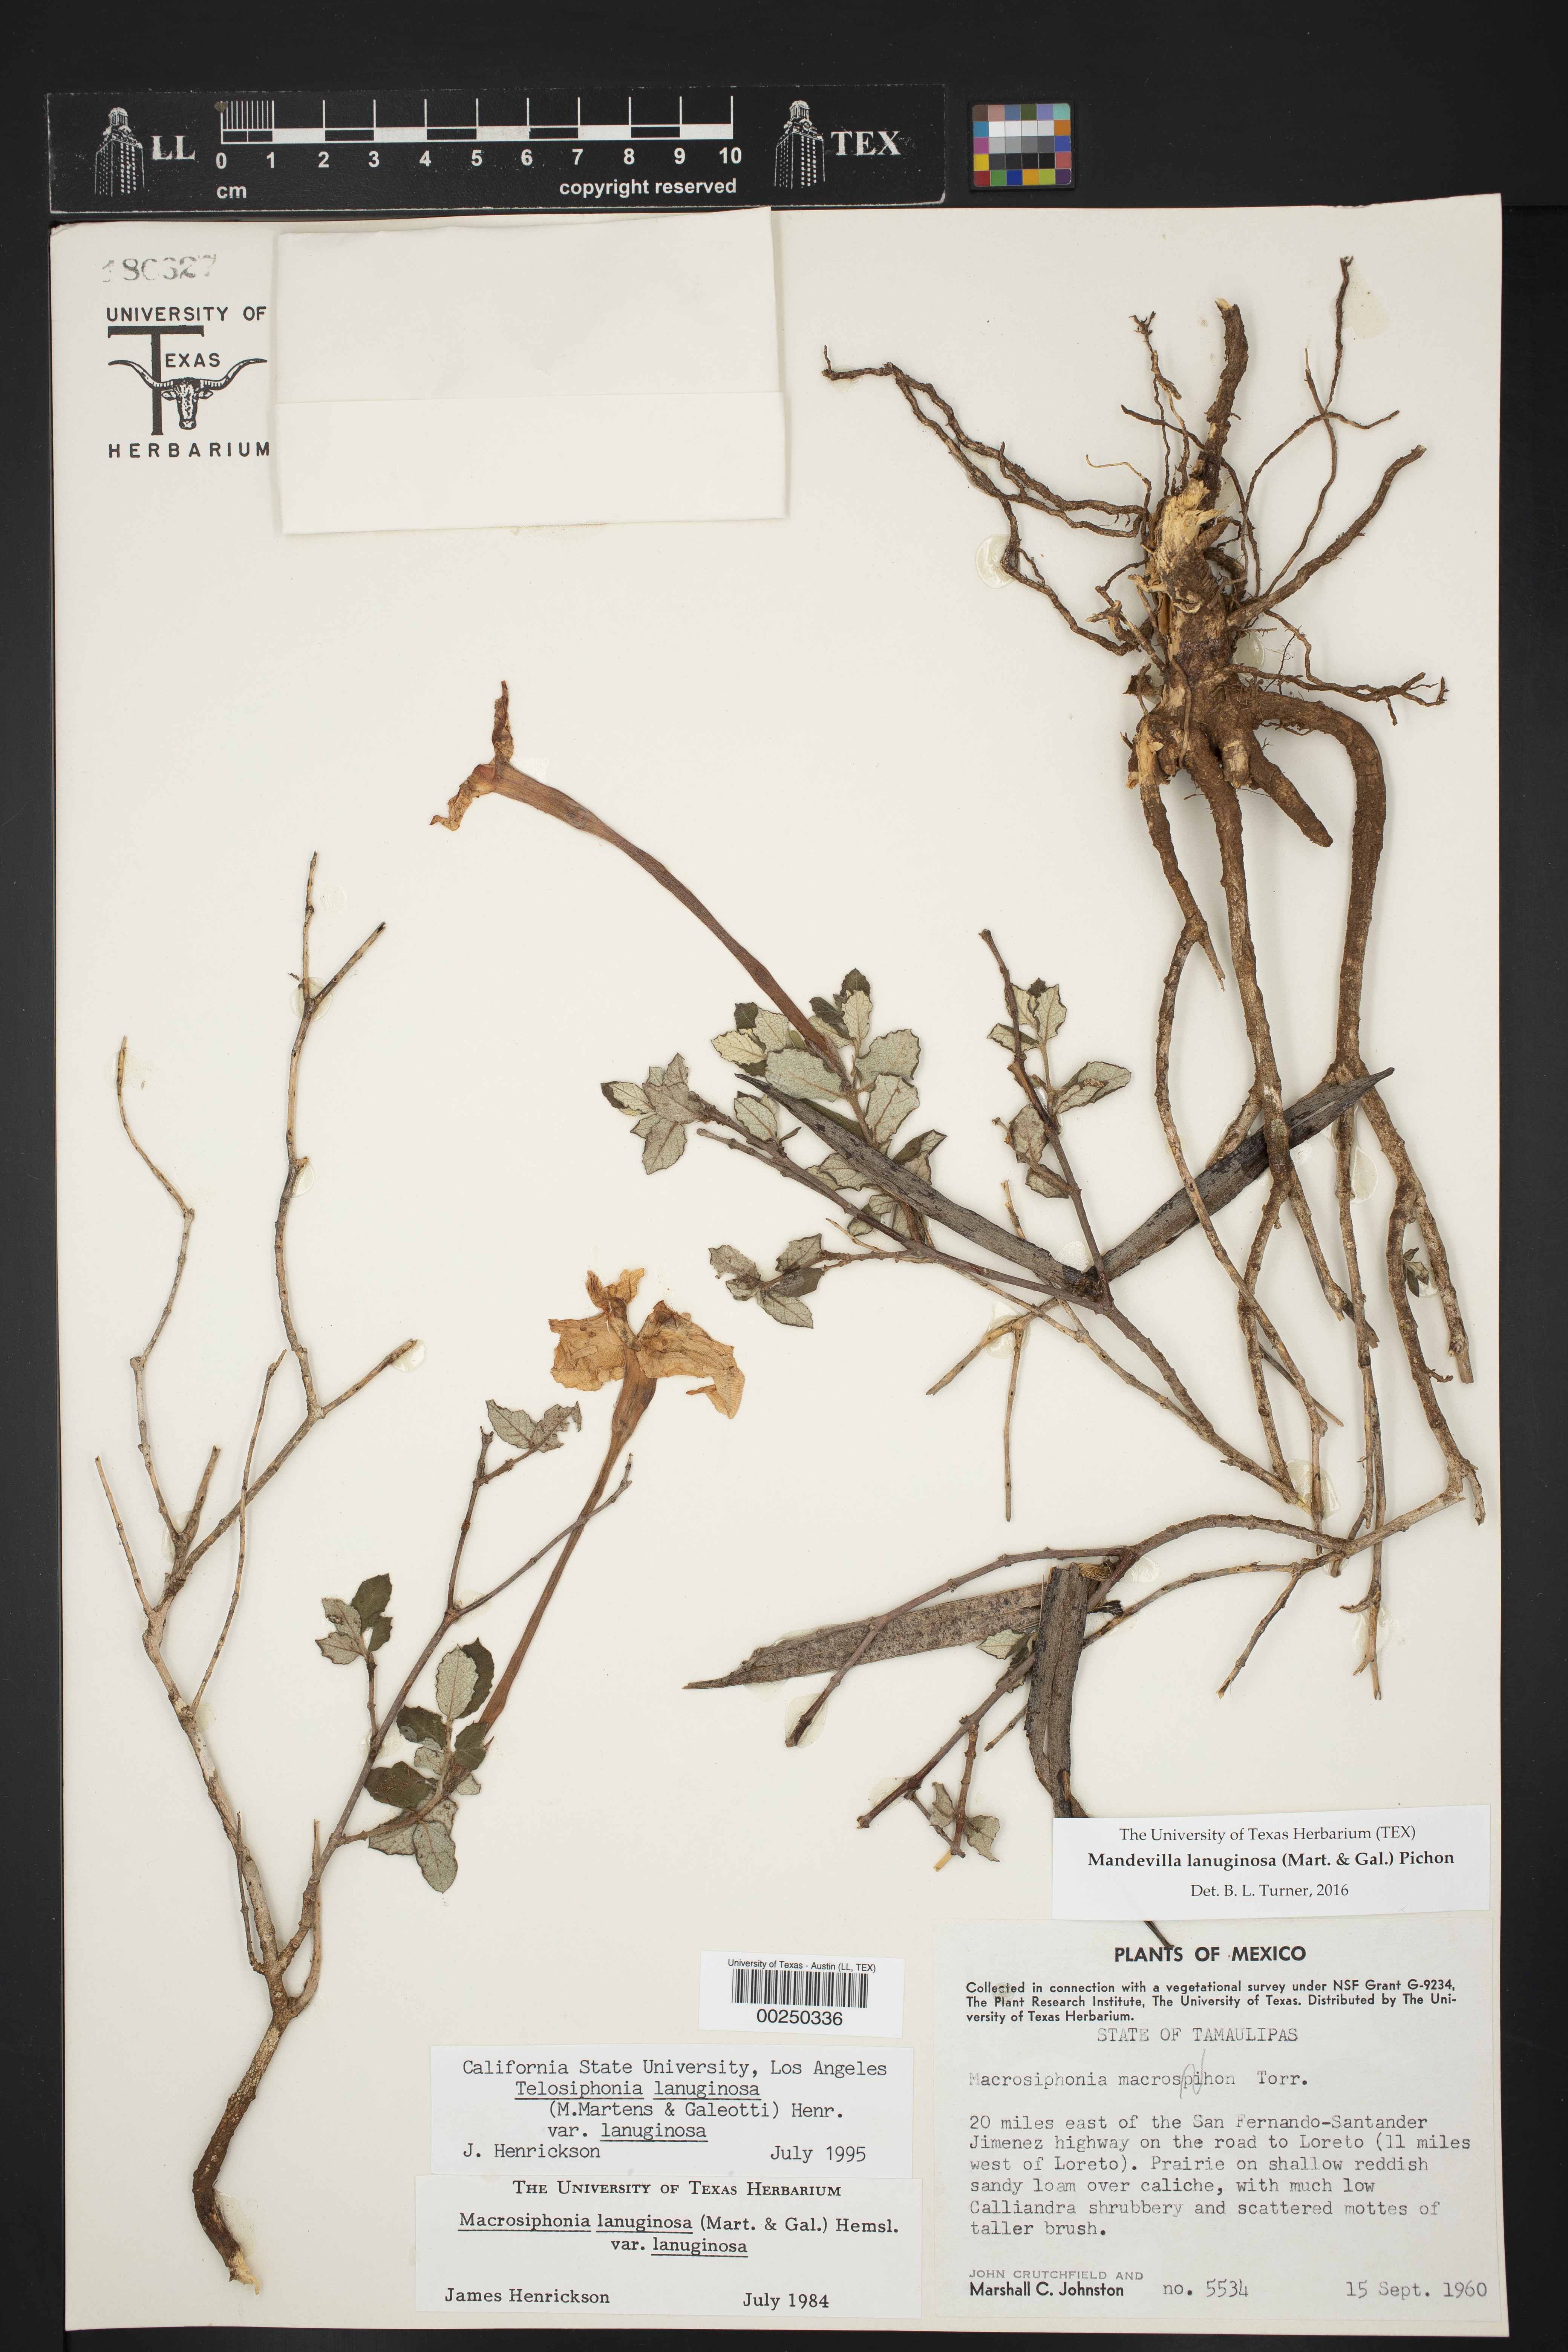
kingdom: Plantae
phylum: Tracheophyta
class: Magnoliopsida
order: Gentianales
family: Apocynaceae
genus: Mandevilla
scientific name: Mandevilla lanuginosa
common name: Plateau rocktrumpet
